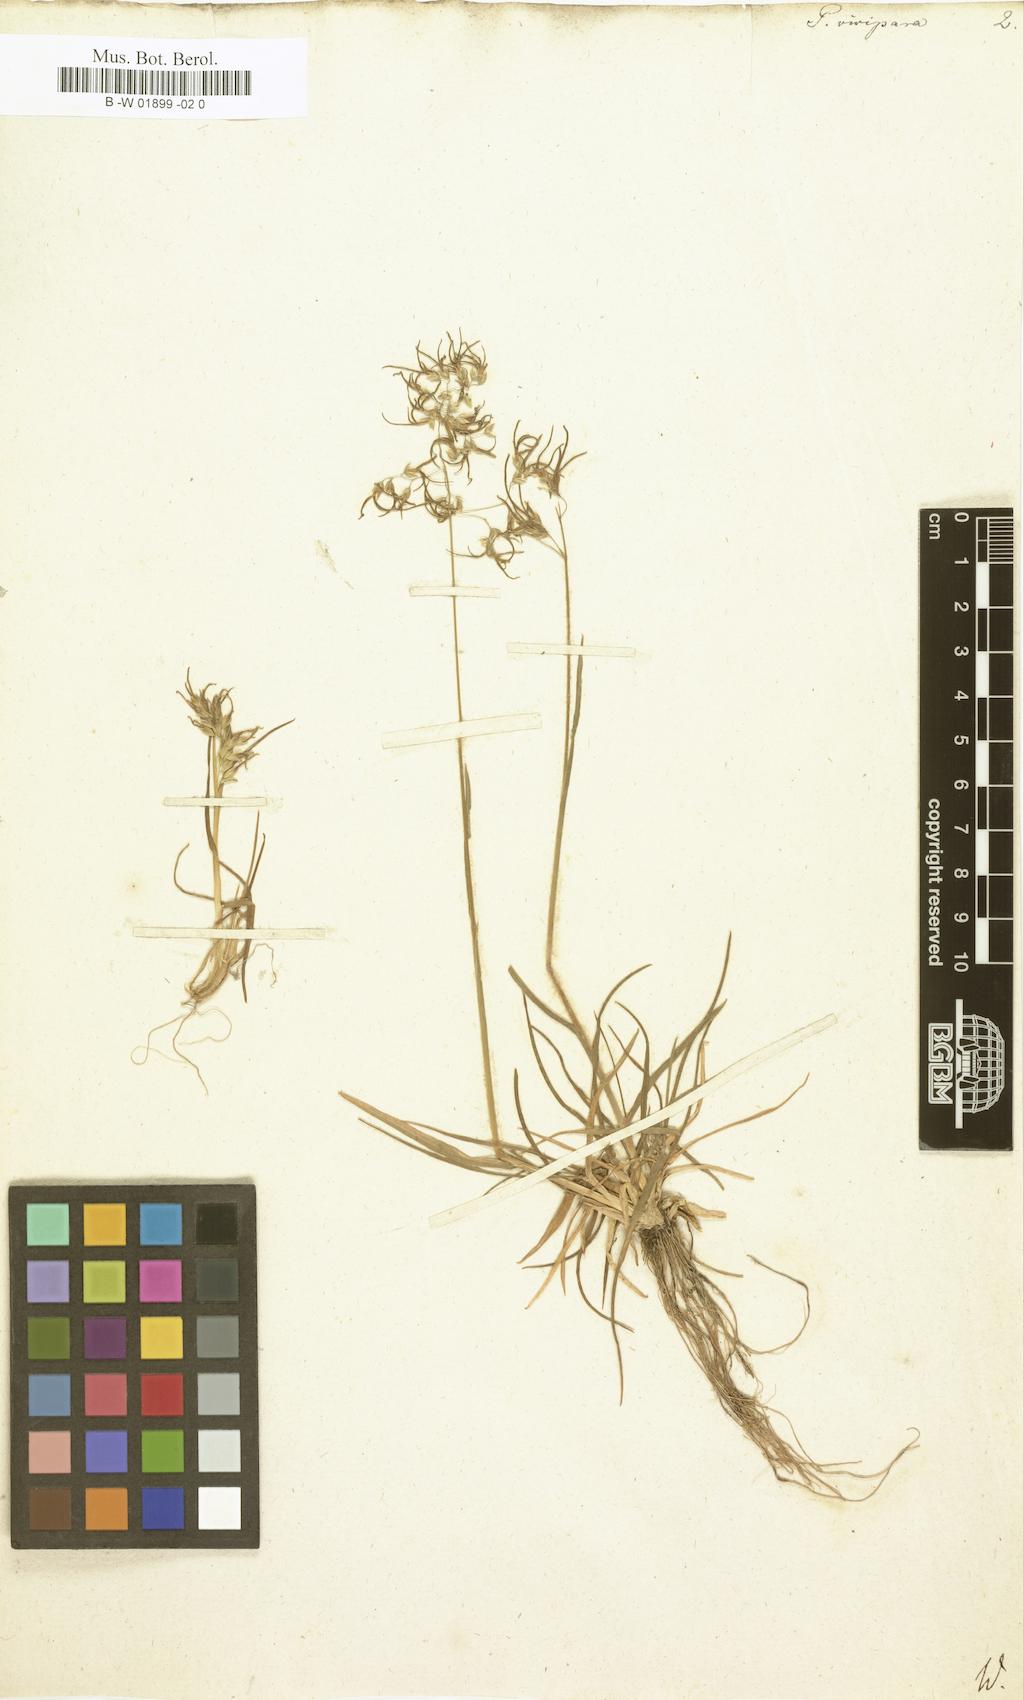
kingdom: Plantae
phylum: Tracheophyta
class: Liliopsida
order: Poales
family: Poaceae
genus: Poa
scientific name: Poa alpina
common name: Alpine bluegrass
